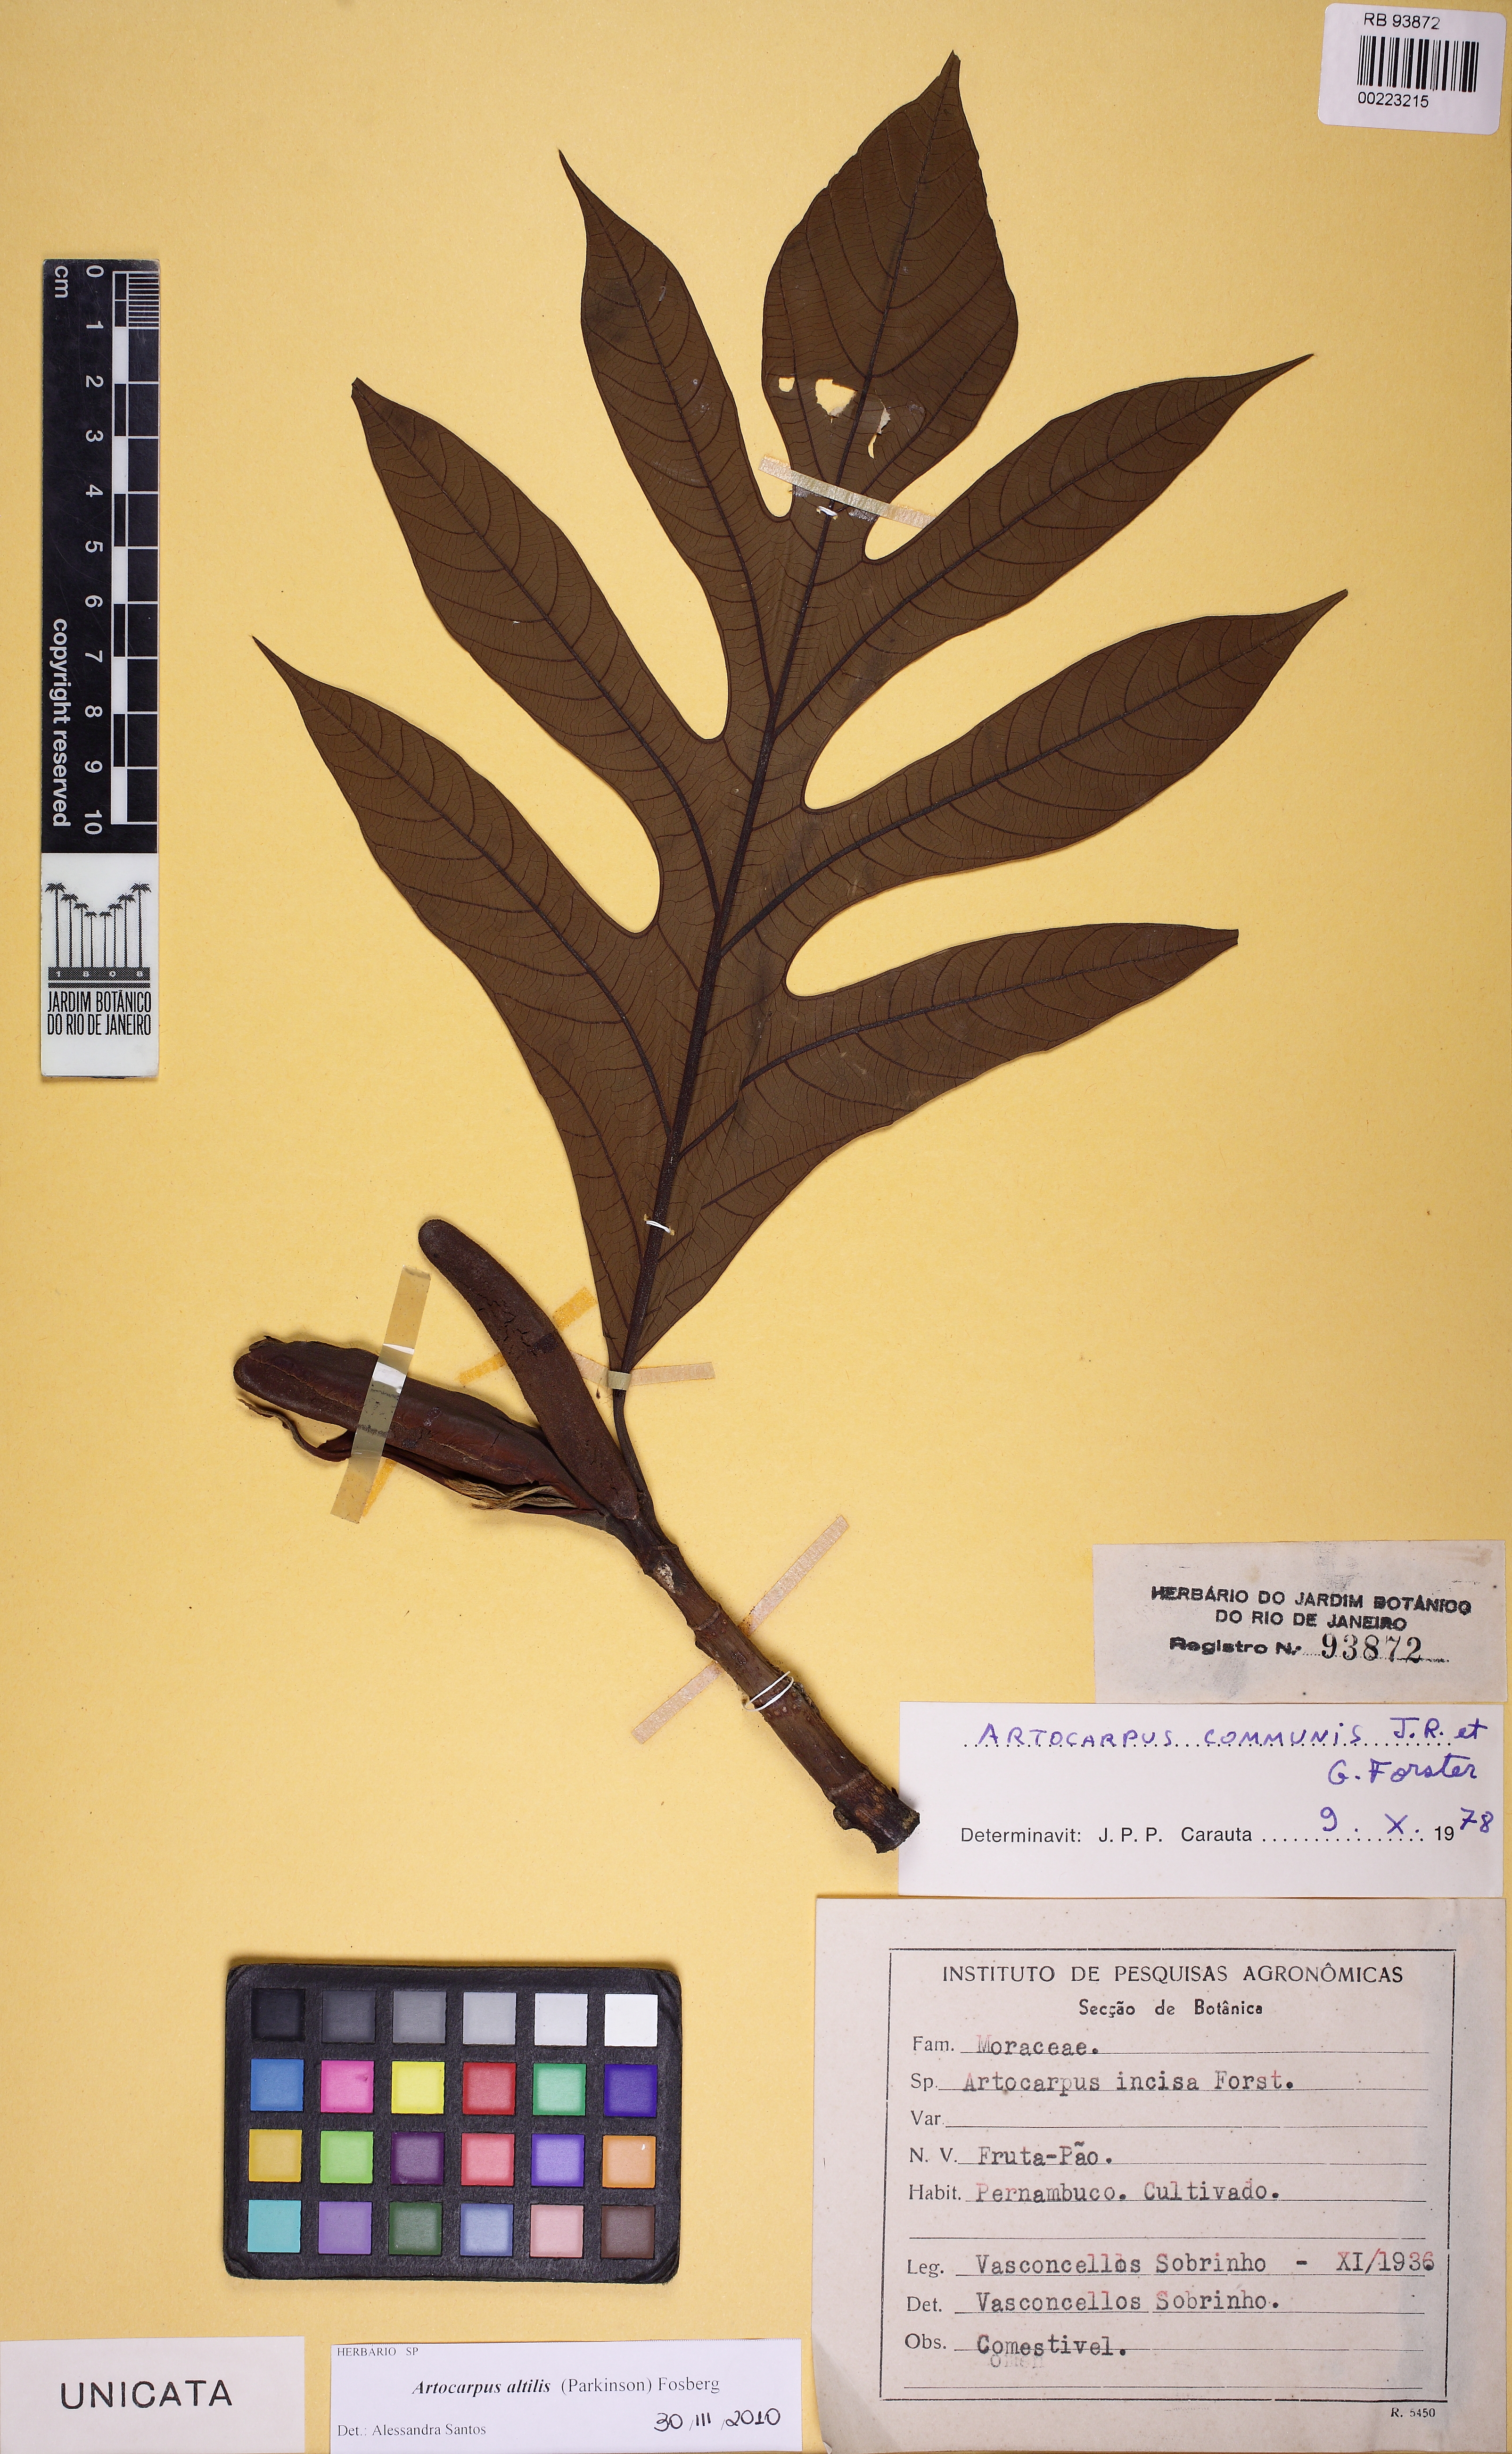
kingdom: Plantae
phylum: Tracheophyta
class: Magnoliopsida
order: Rosales
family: Moraceae
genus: Artocarpus
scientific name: Artocarpus altilis
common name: Breadfruit
